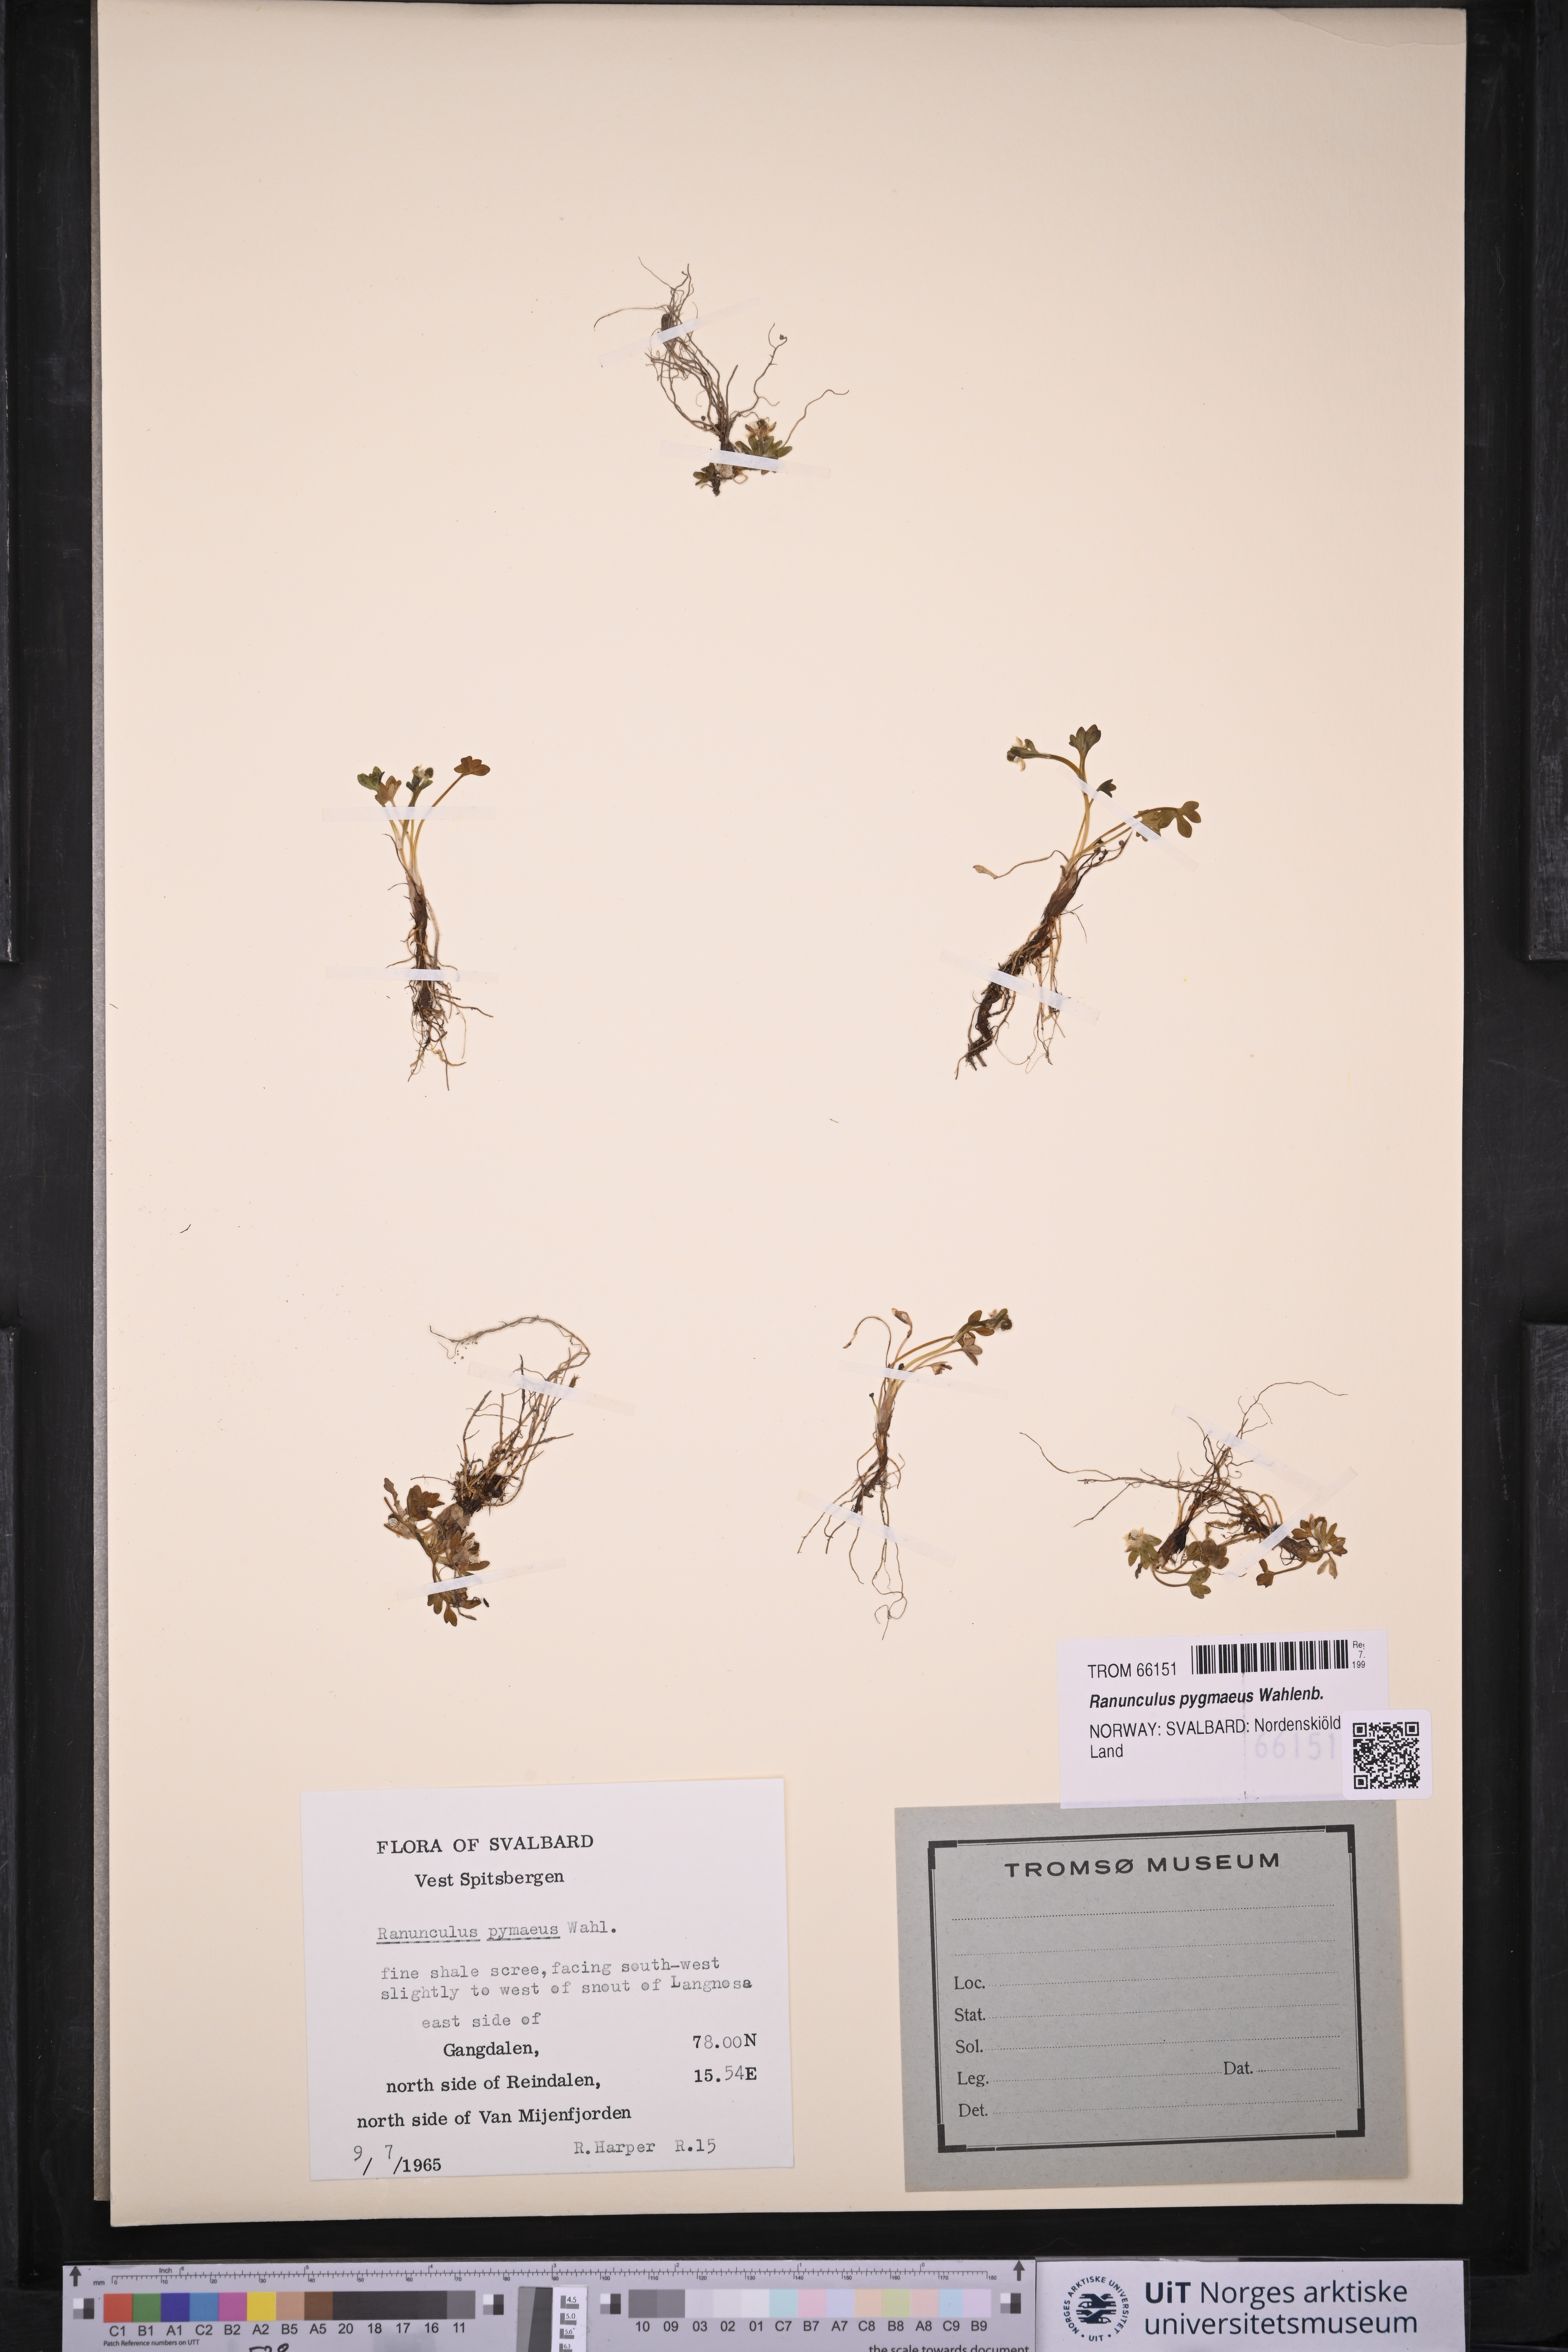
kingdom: Plantae
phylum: Tracheophyta
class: Magnoliopsida
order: Ranunculales
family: Ranunculaceae
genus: Ranunculus
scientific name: Ranunculus pygmaeus
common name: Dwarf buttercup
